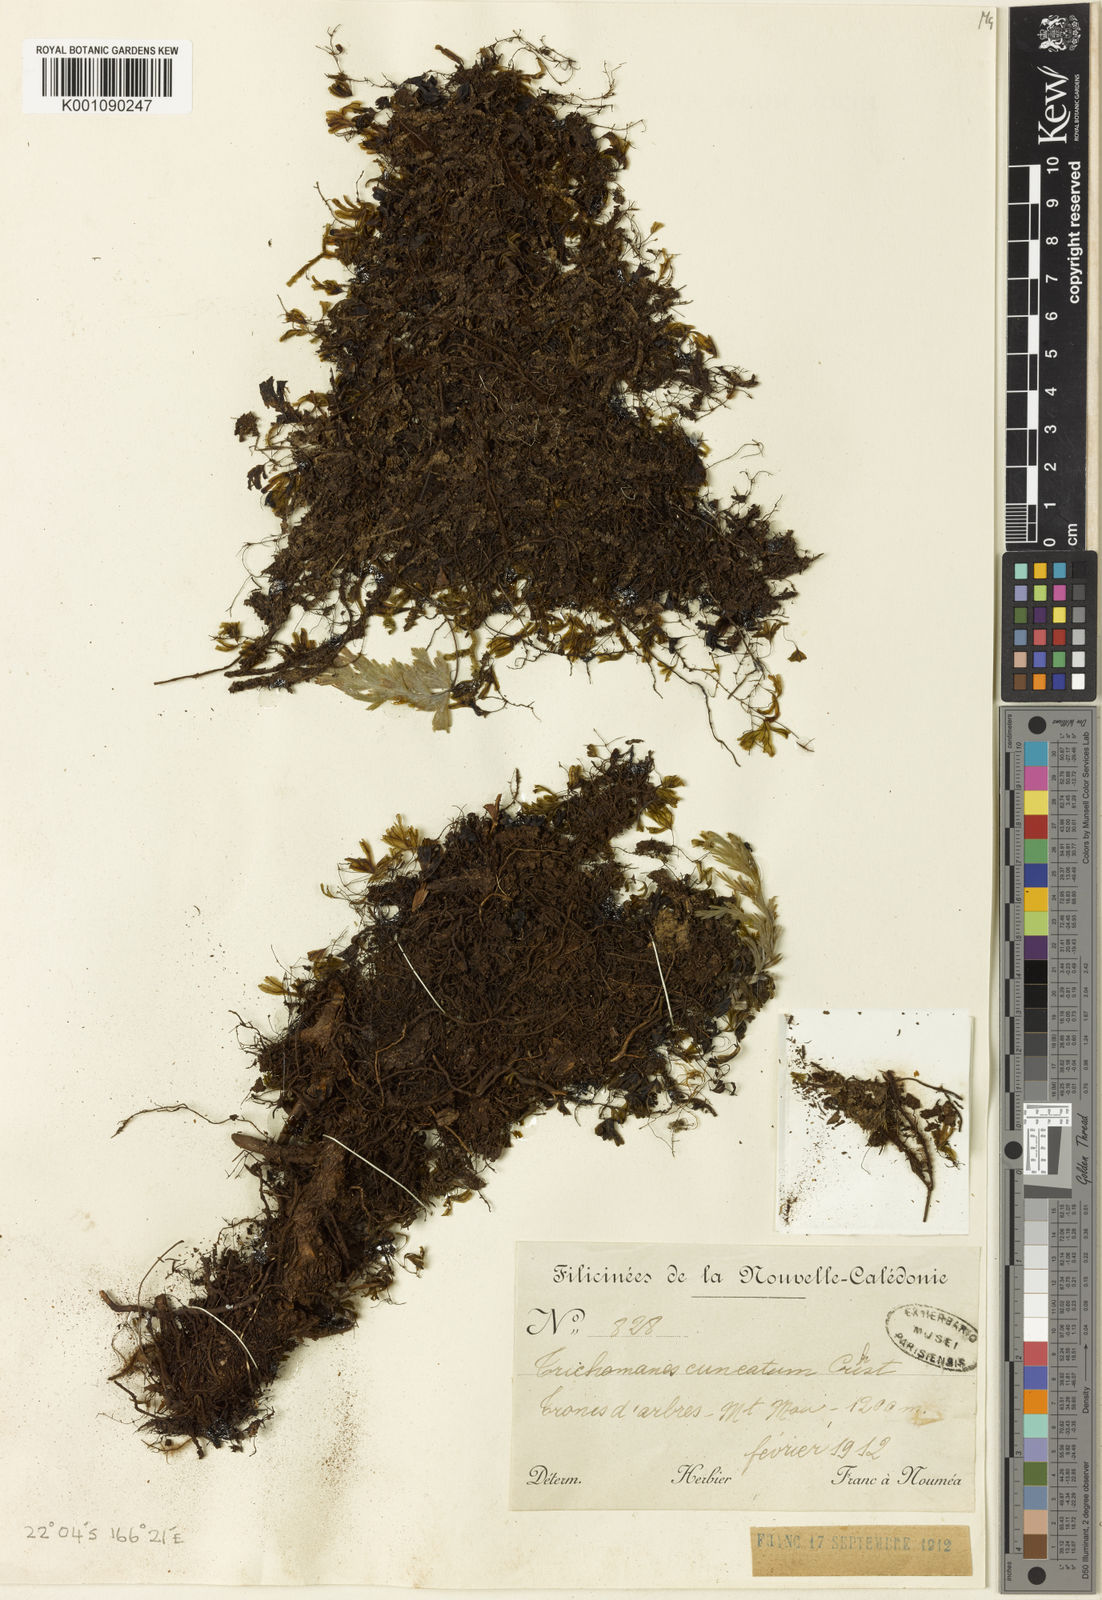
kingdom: Plantae
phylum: Tracheophyta
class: Polypodiopsida
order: Hymenophyllales
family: Hymenophyllaceae
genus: Hymenophyllum
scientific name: Hymenophyllum francii
